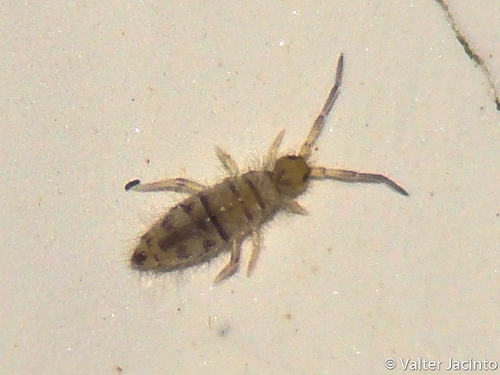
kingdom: Animalia
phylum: Arthropoda
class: Collembola
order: Entomobryomorpha
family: Entomobryidae
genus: Entomobrya
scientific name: Entomobrya multifasciata
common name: Springtail
